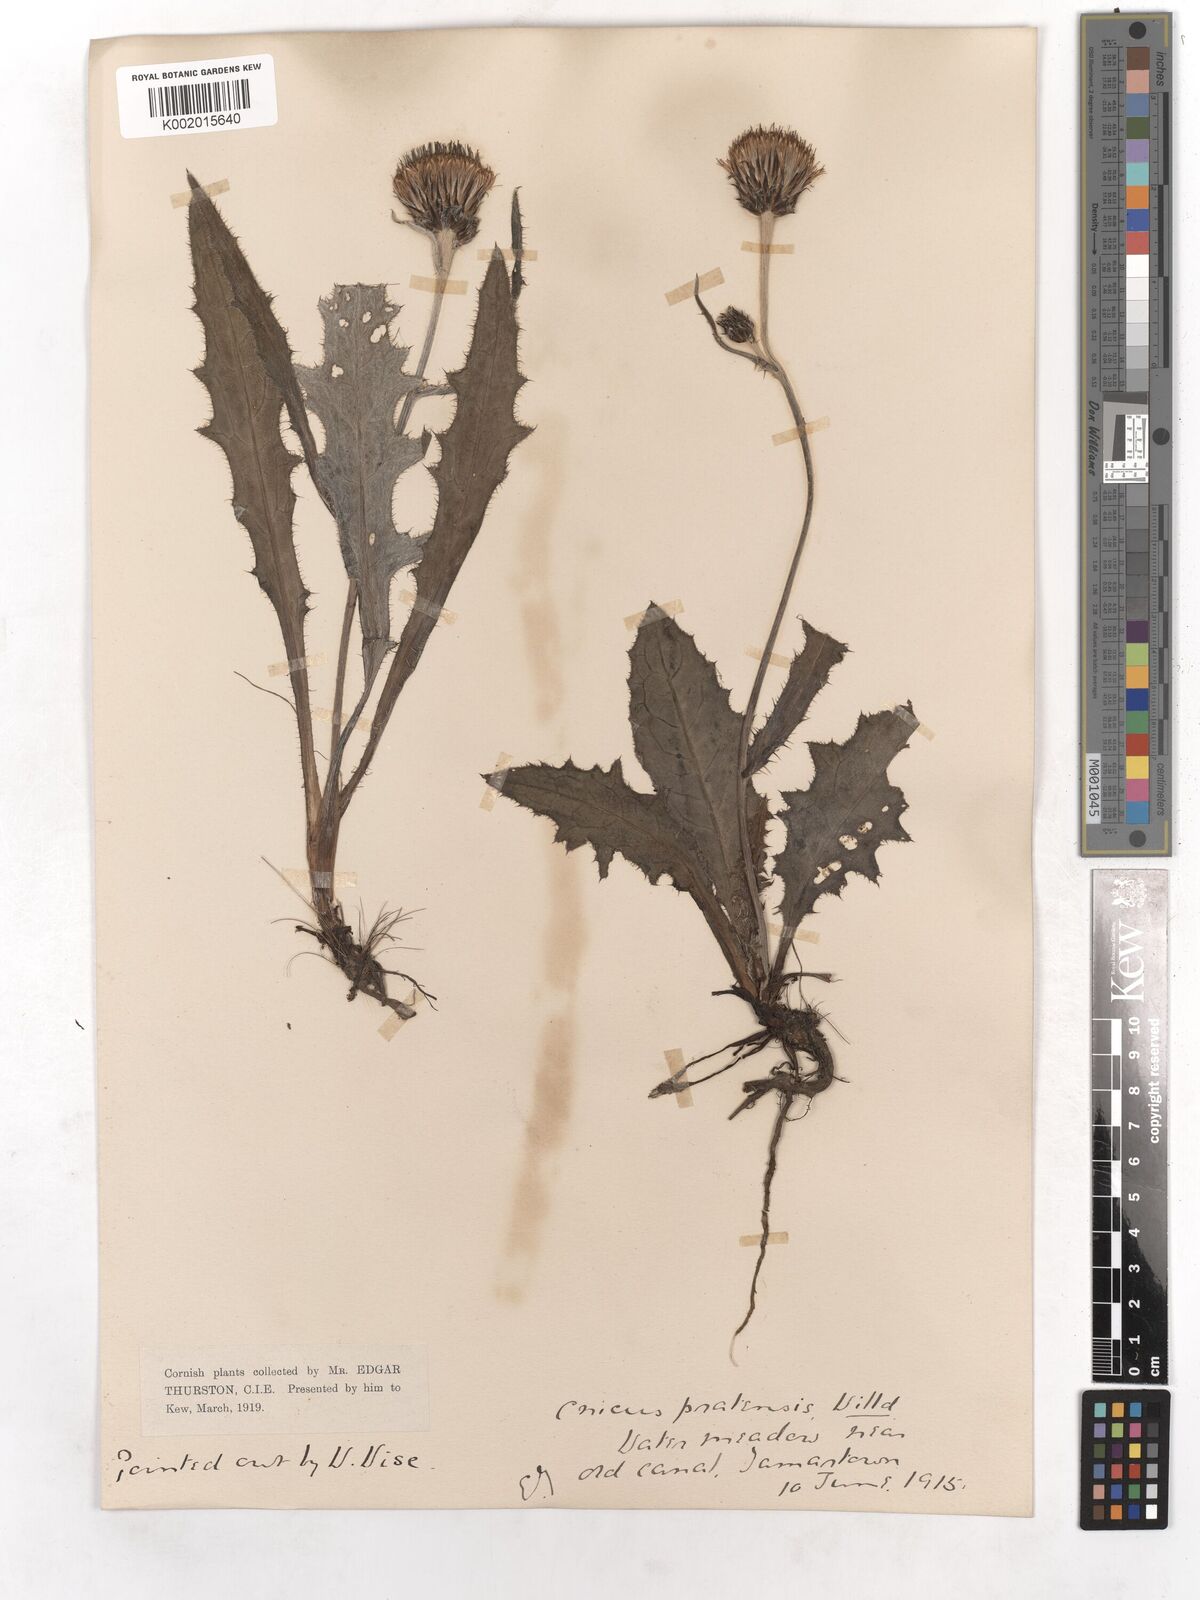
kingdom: Plantae
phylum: Tracheophyta
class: Magnoliopsida
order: Asterales
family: Asteraceae
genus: Cirsium
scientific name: Cirsium dissectum
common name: Meadow thistle
